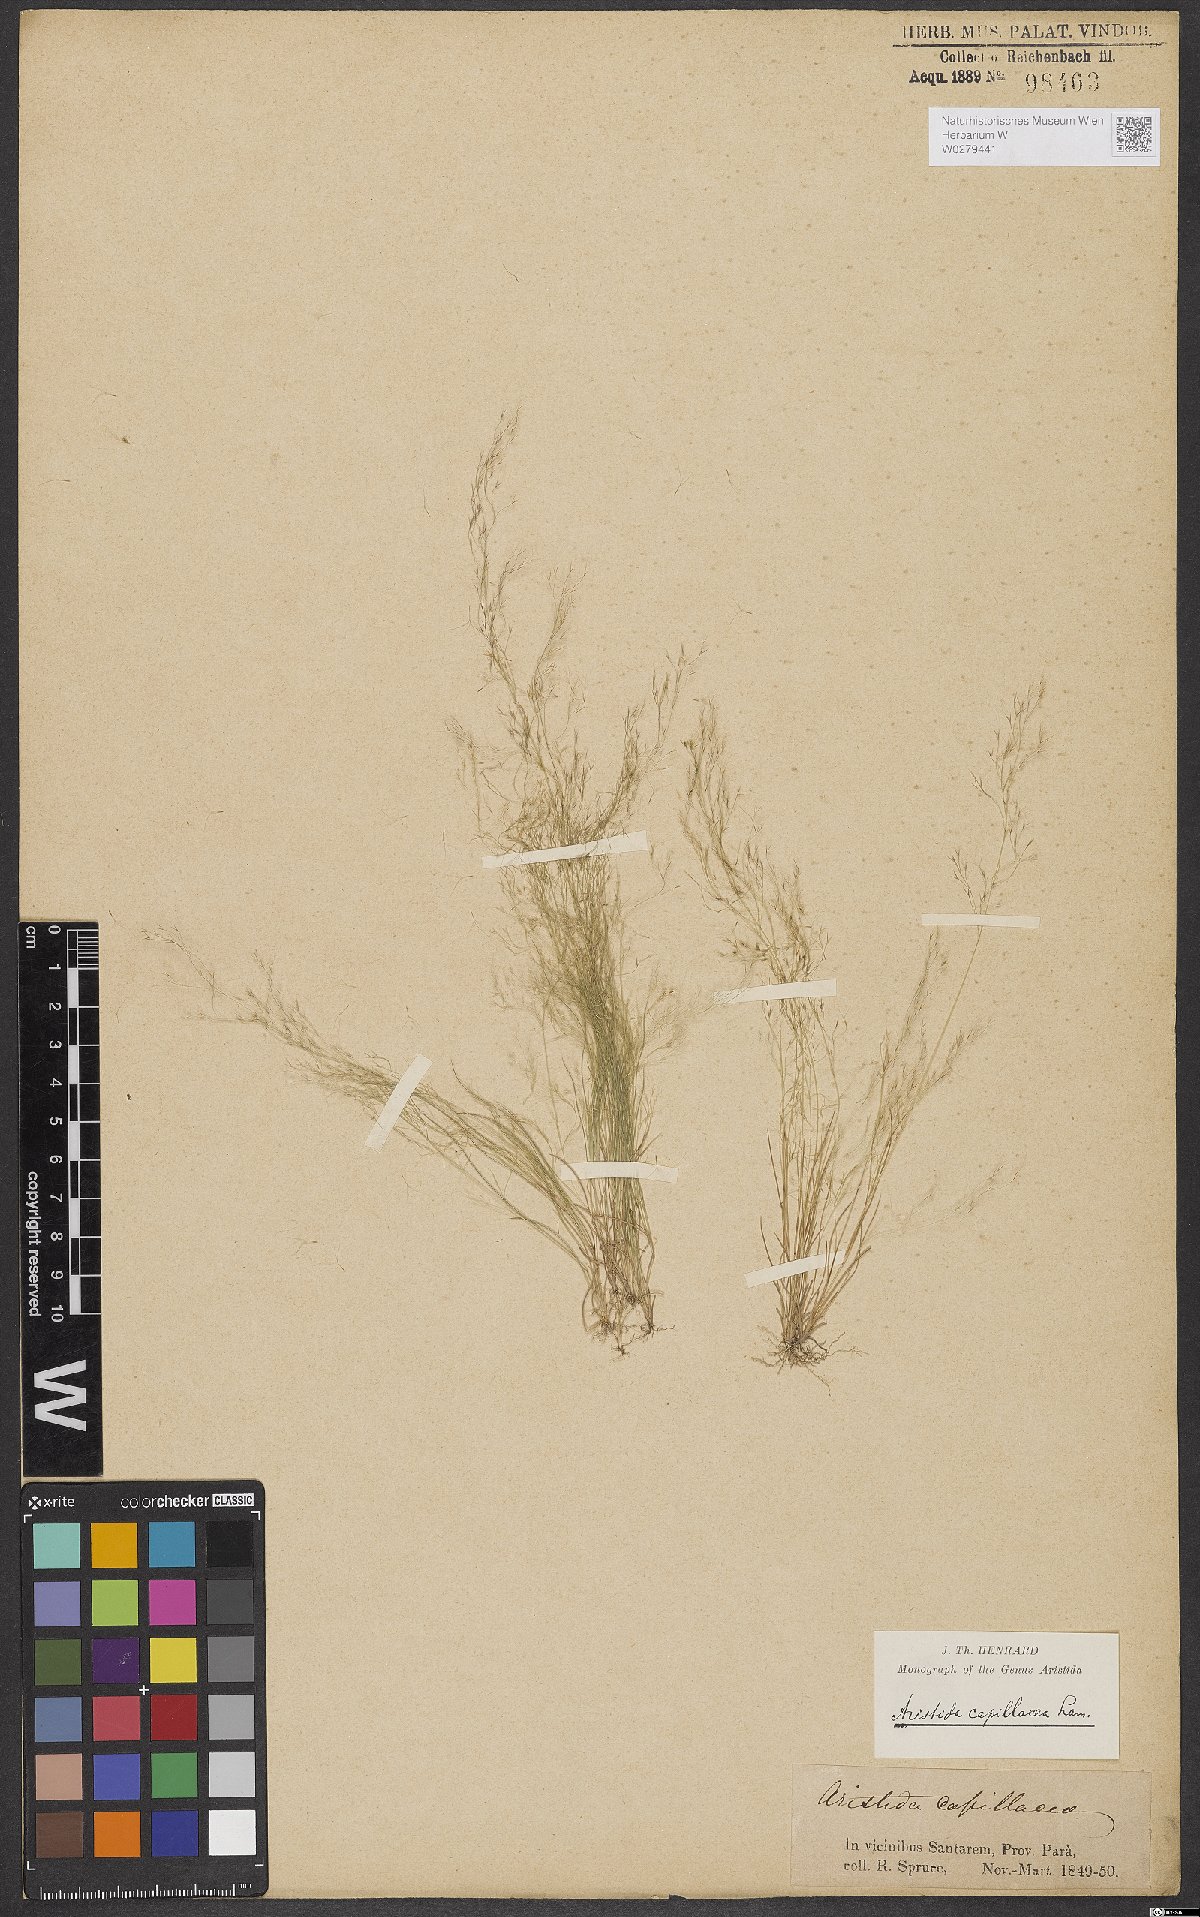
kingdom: Plantae
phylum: Tracheophyta
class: Liliopsida
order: Poales
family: Poaceae
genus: Aristida
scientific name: Aristida capillacea
